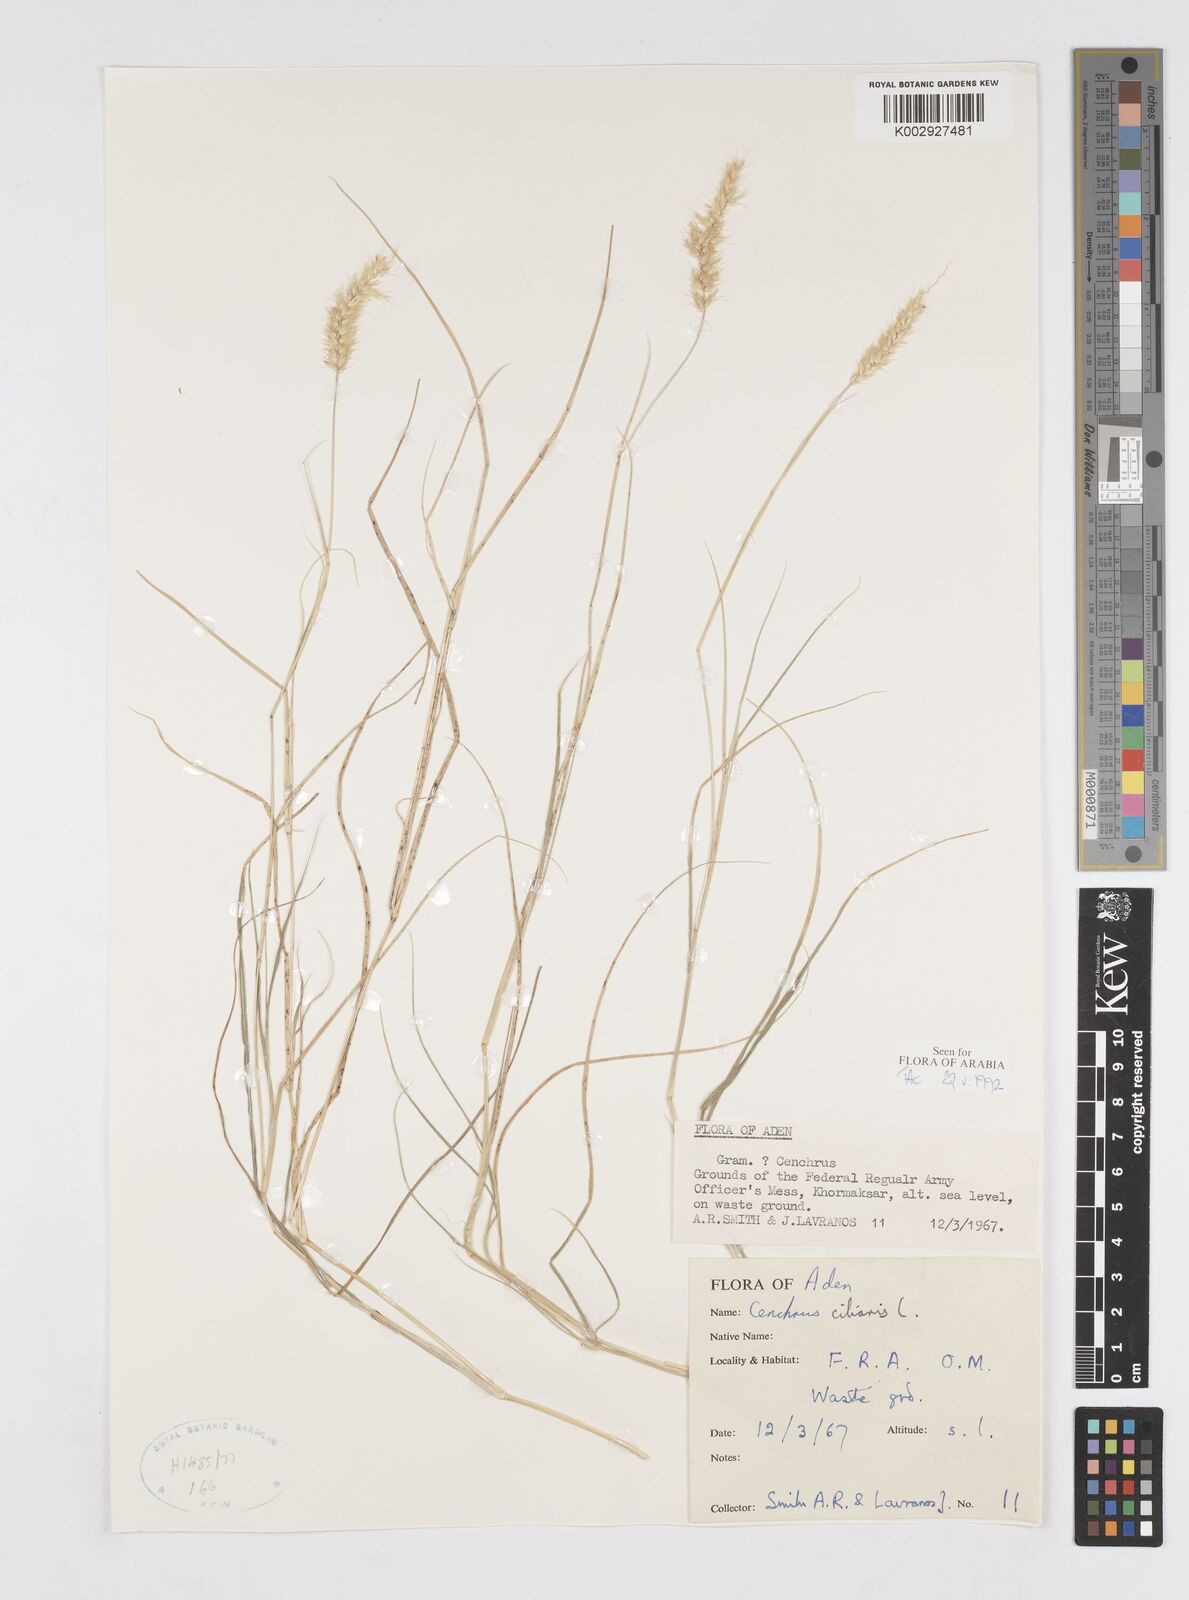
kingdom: Plantae
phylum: Tracheophyta
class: Liliopsida
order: Poales
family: Poaceae
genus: Cenchrus
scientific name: Cenchrus pennisetiformis
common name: Cloncurry
